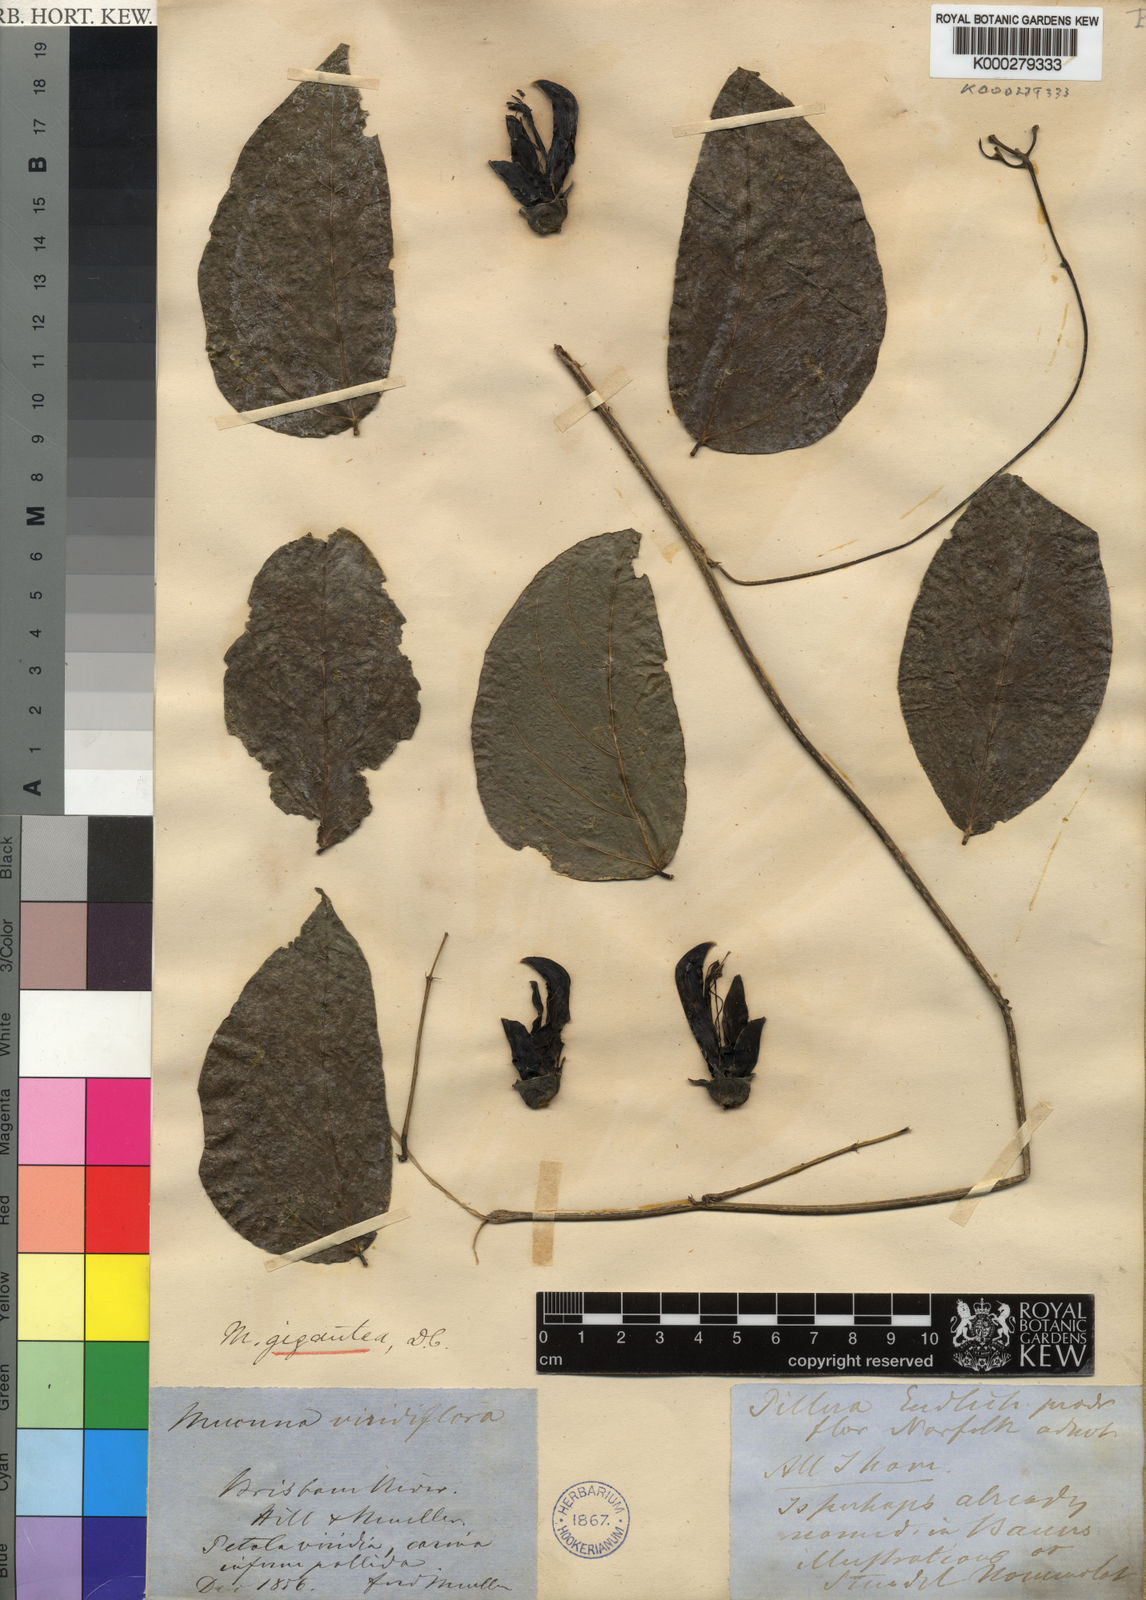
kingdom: Plantae
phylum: Tracheophyta
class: Magnoliopsida
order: Fabales
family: Fabaceae
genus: Mucuna
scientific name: Mucuna gigantea
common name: Black-bean
